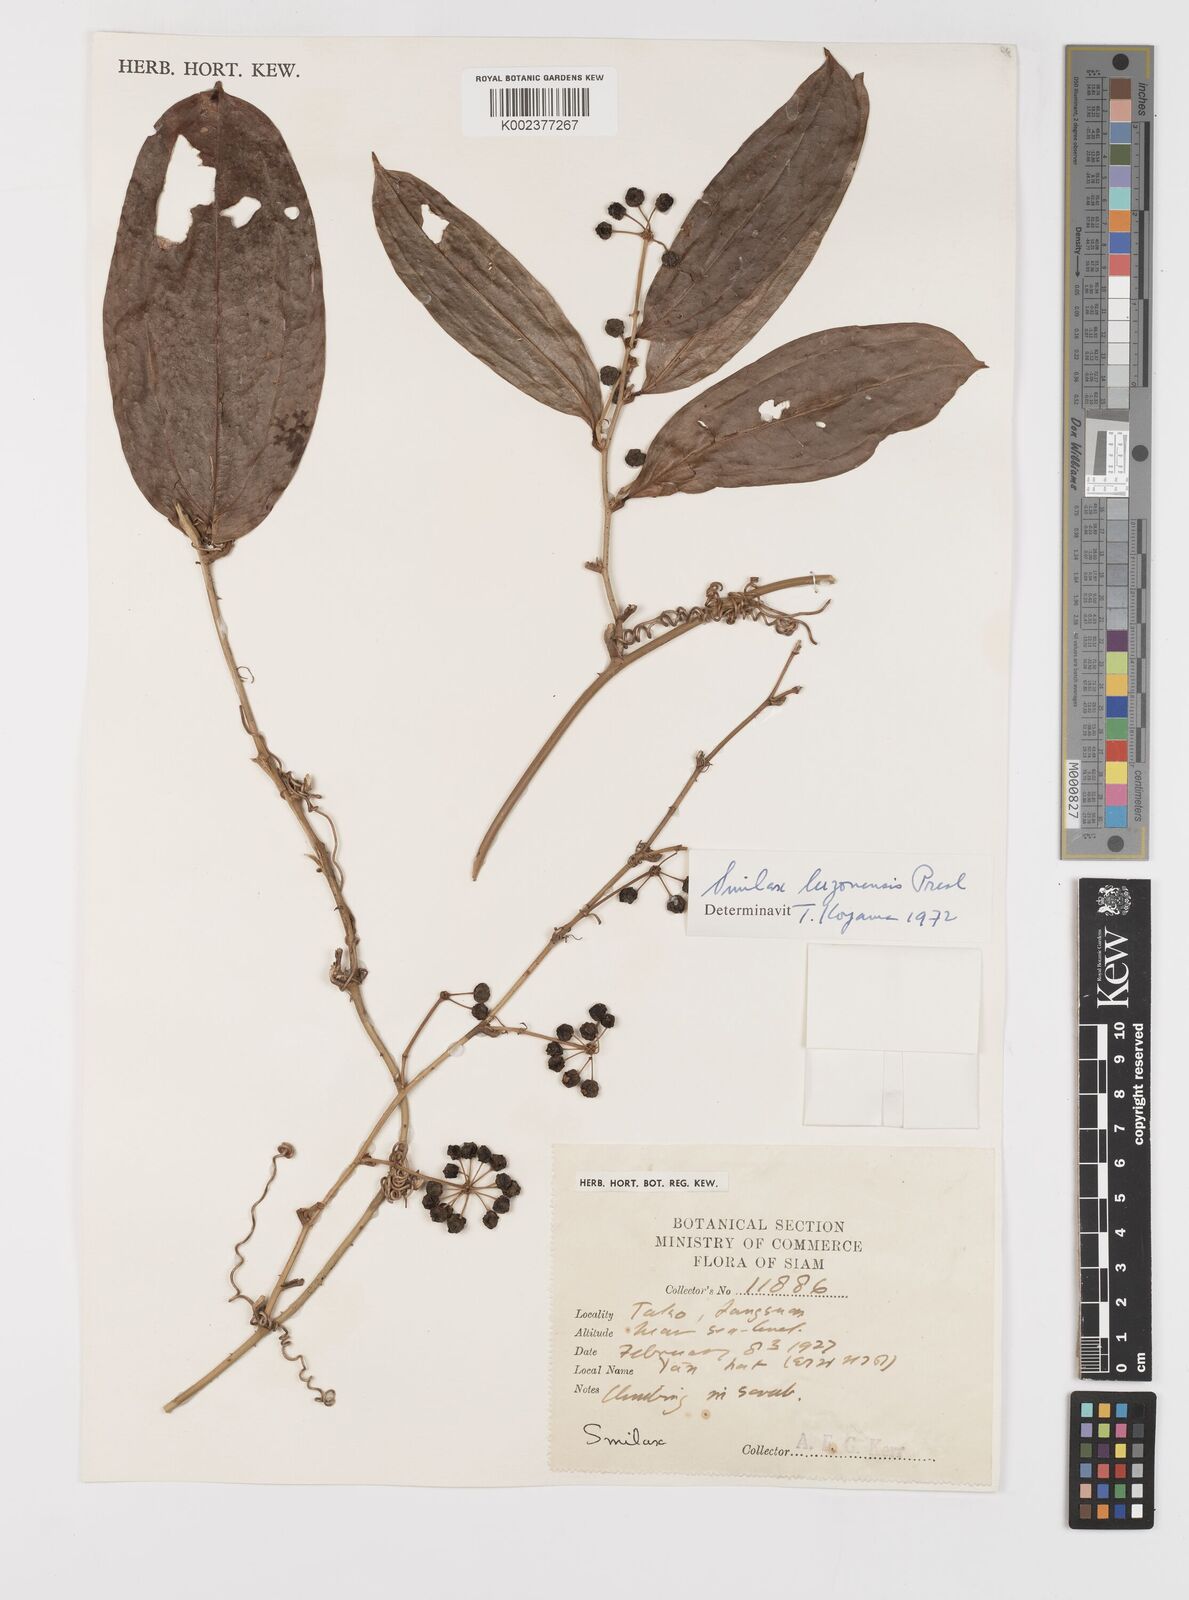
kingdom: Plantae
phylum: Tracheophyta
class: Liliopsida
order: Liliales
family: Smilacaceae
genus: Smilax
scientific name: Smilax luzonensis
